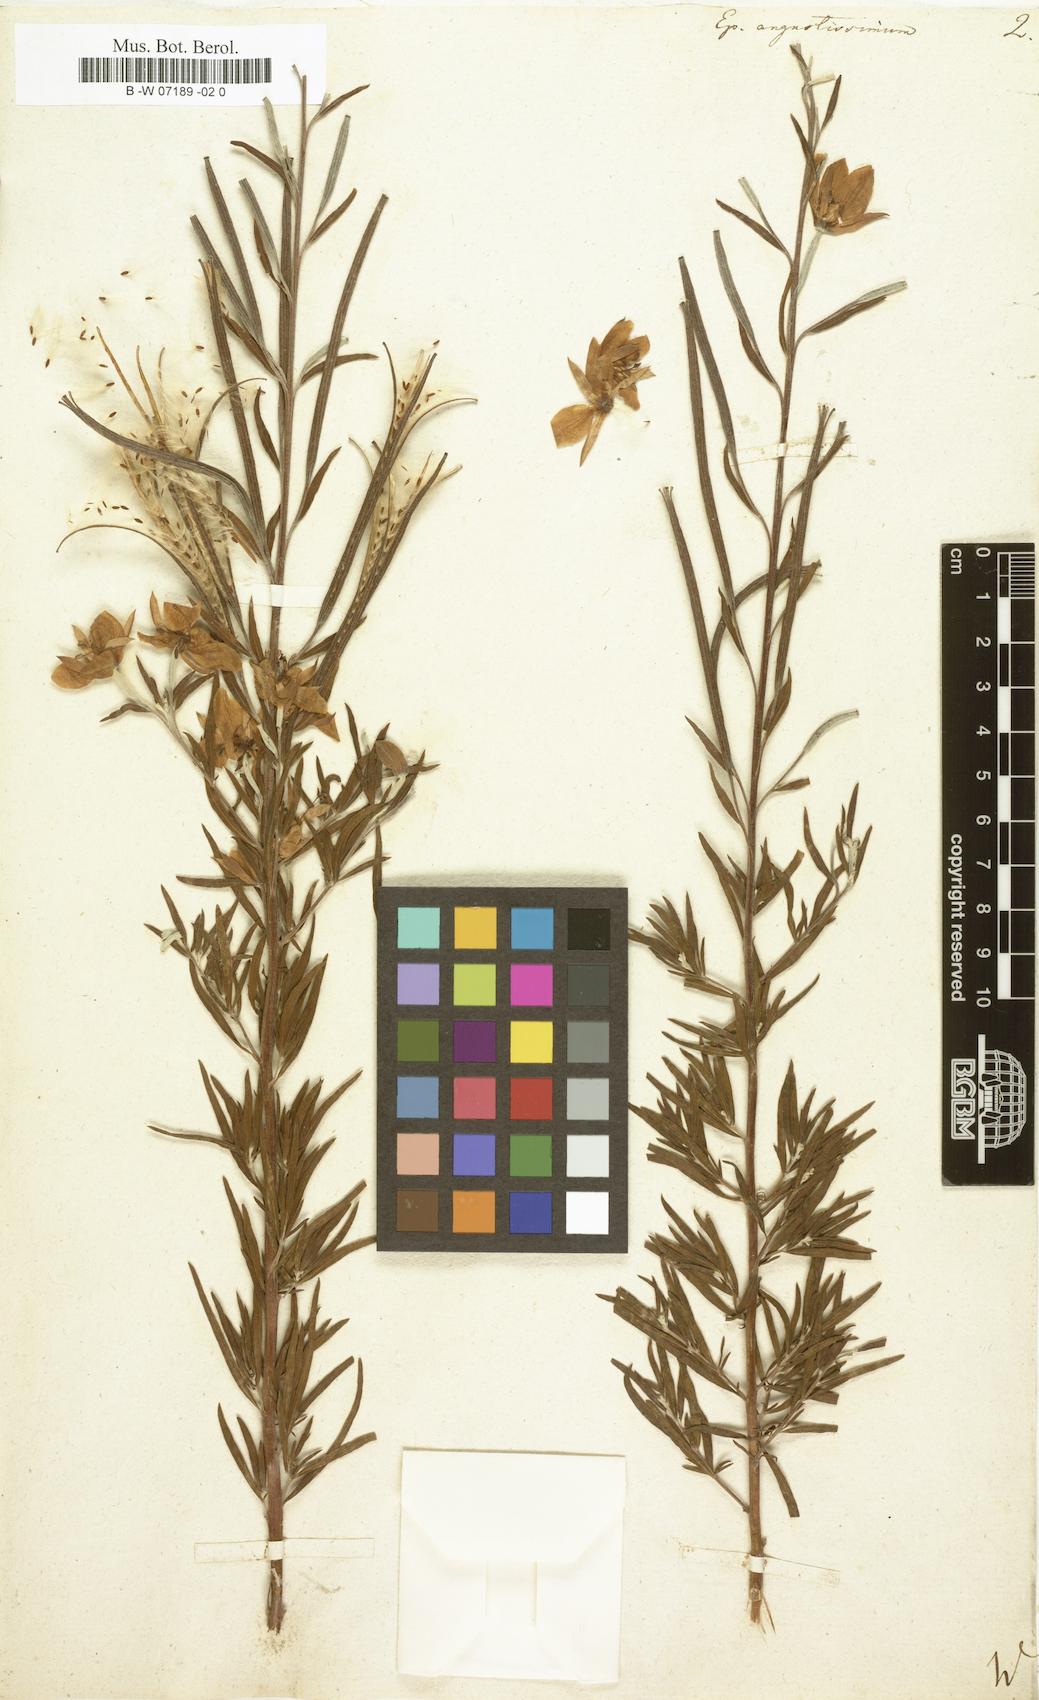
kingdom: Plantae
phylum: Tracheophyta
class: Magnoliopsida
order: Myrtales
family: Onagraceae
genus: Chamaenerion
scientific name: Chamaenerion angustifolium
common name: Fireweed
